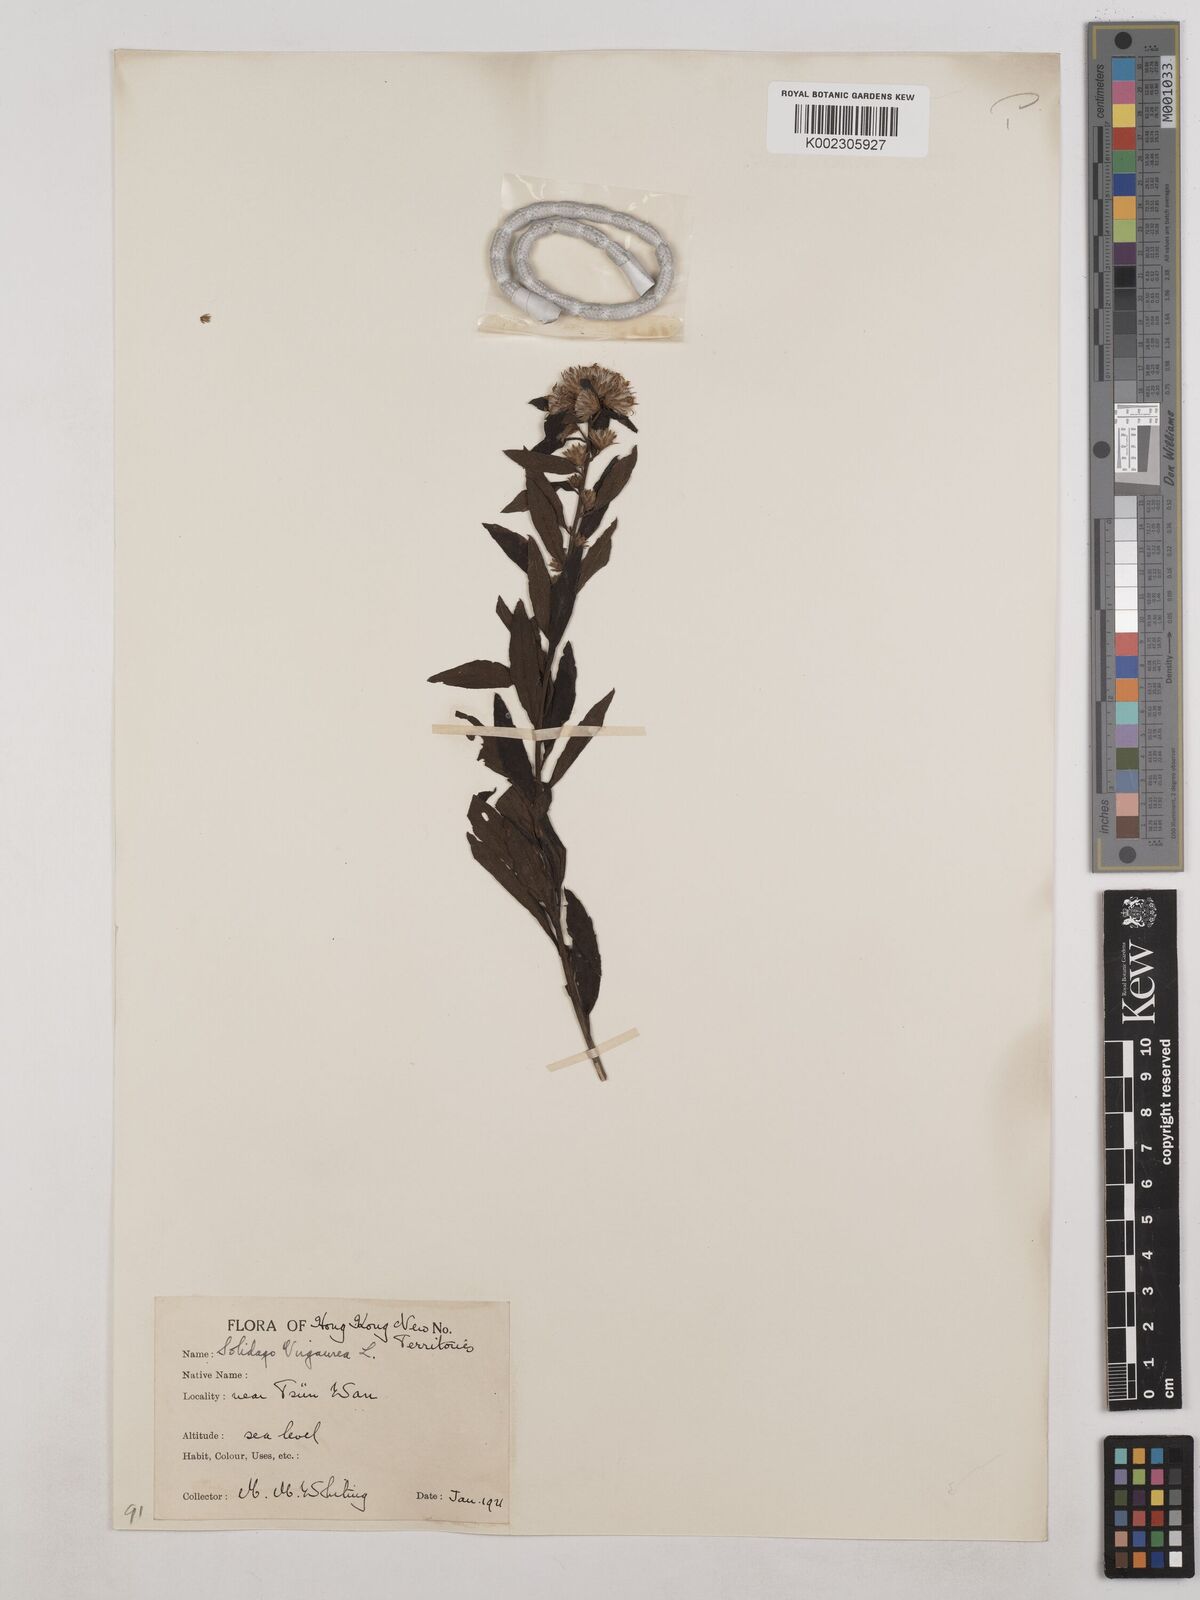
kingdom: Plantae
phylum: Tracheophyta
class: Magnoliopsida
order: Asterales
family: Asteraceae
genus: Solidago
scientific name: Solidago virgaurea
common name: Goldenrod
